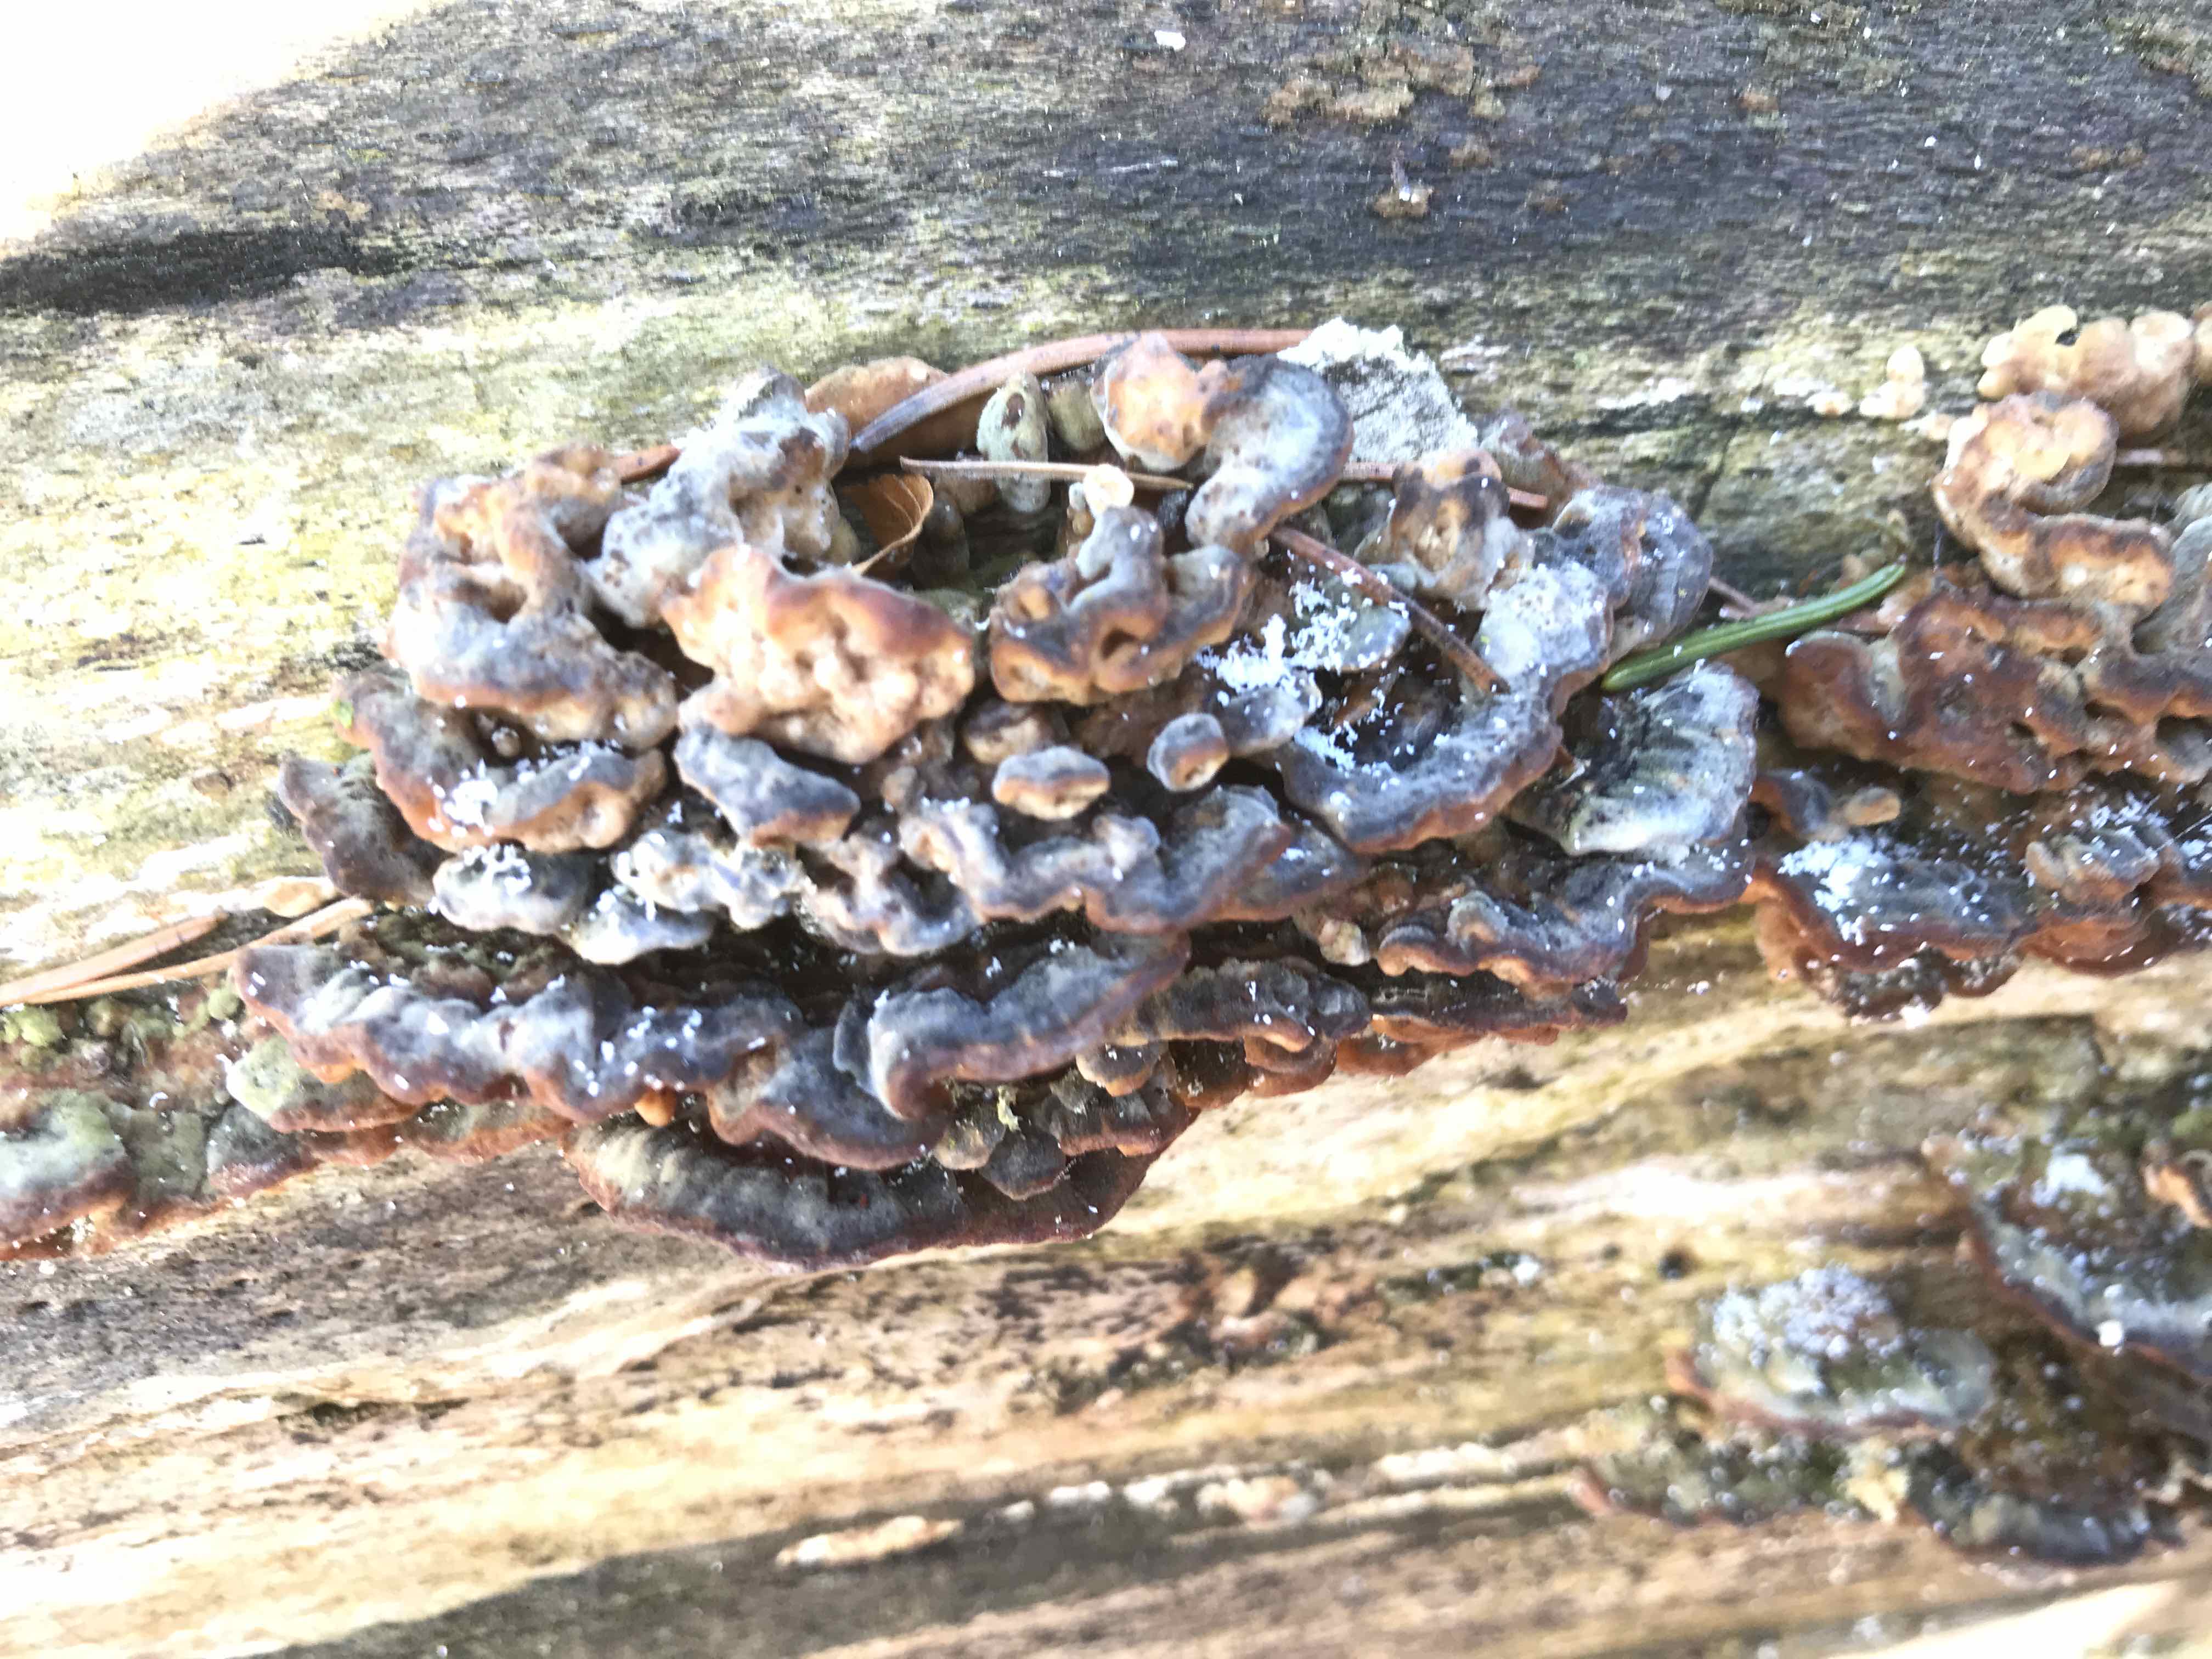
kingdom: Fungi
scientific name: Fungi
